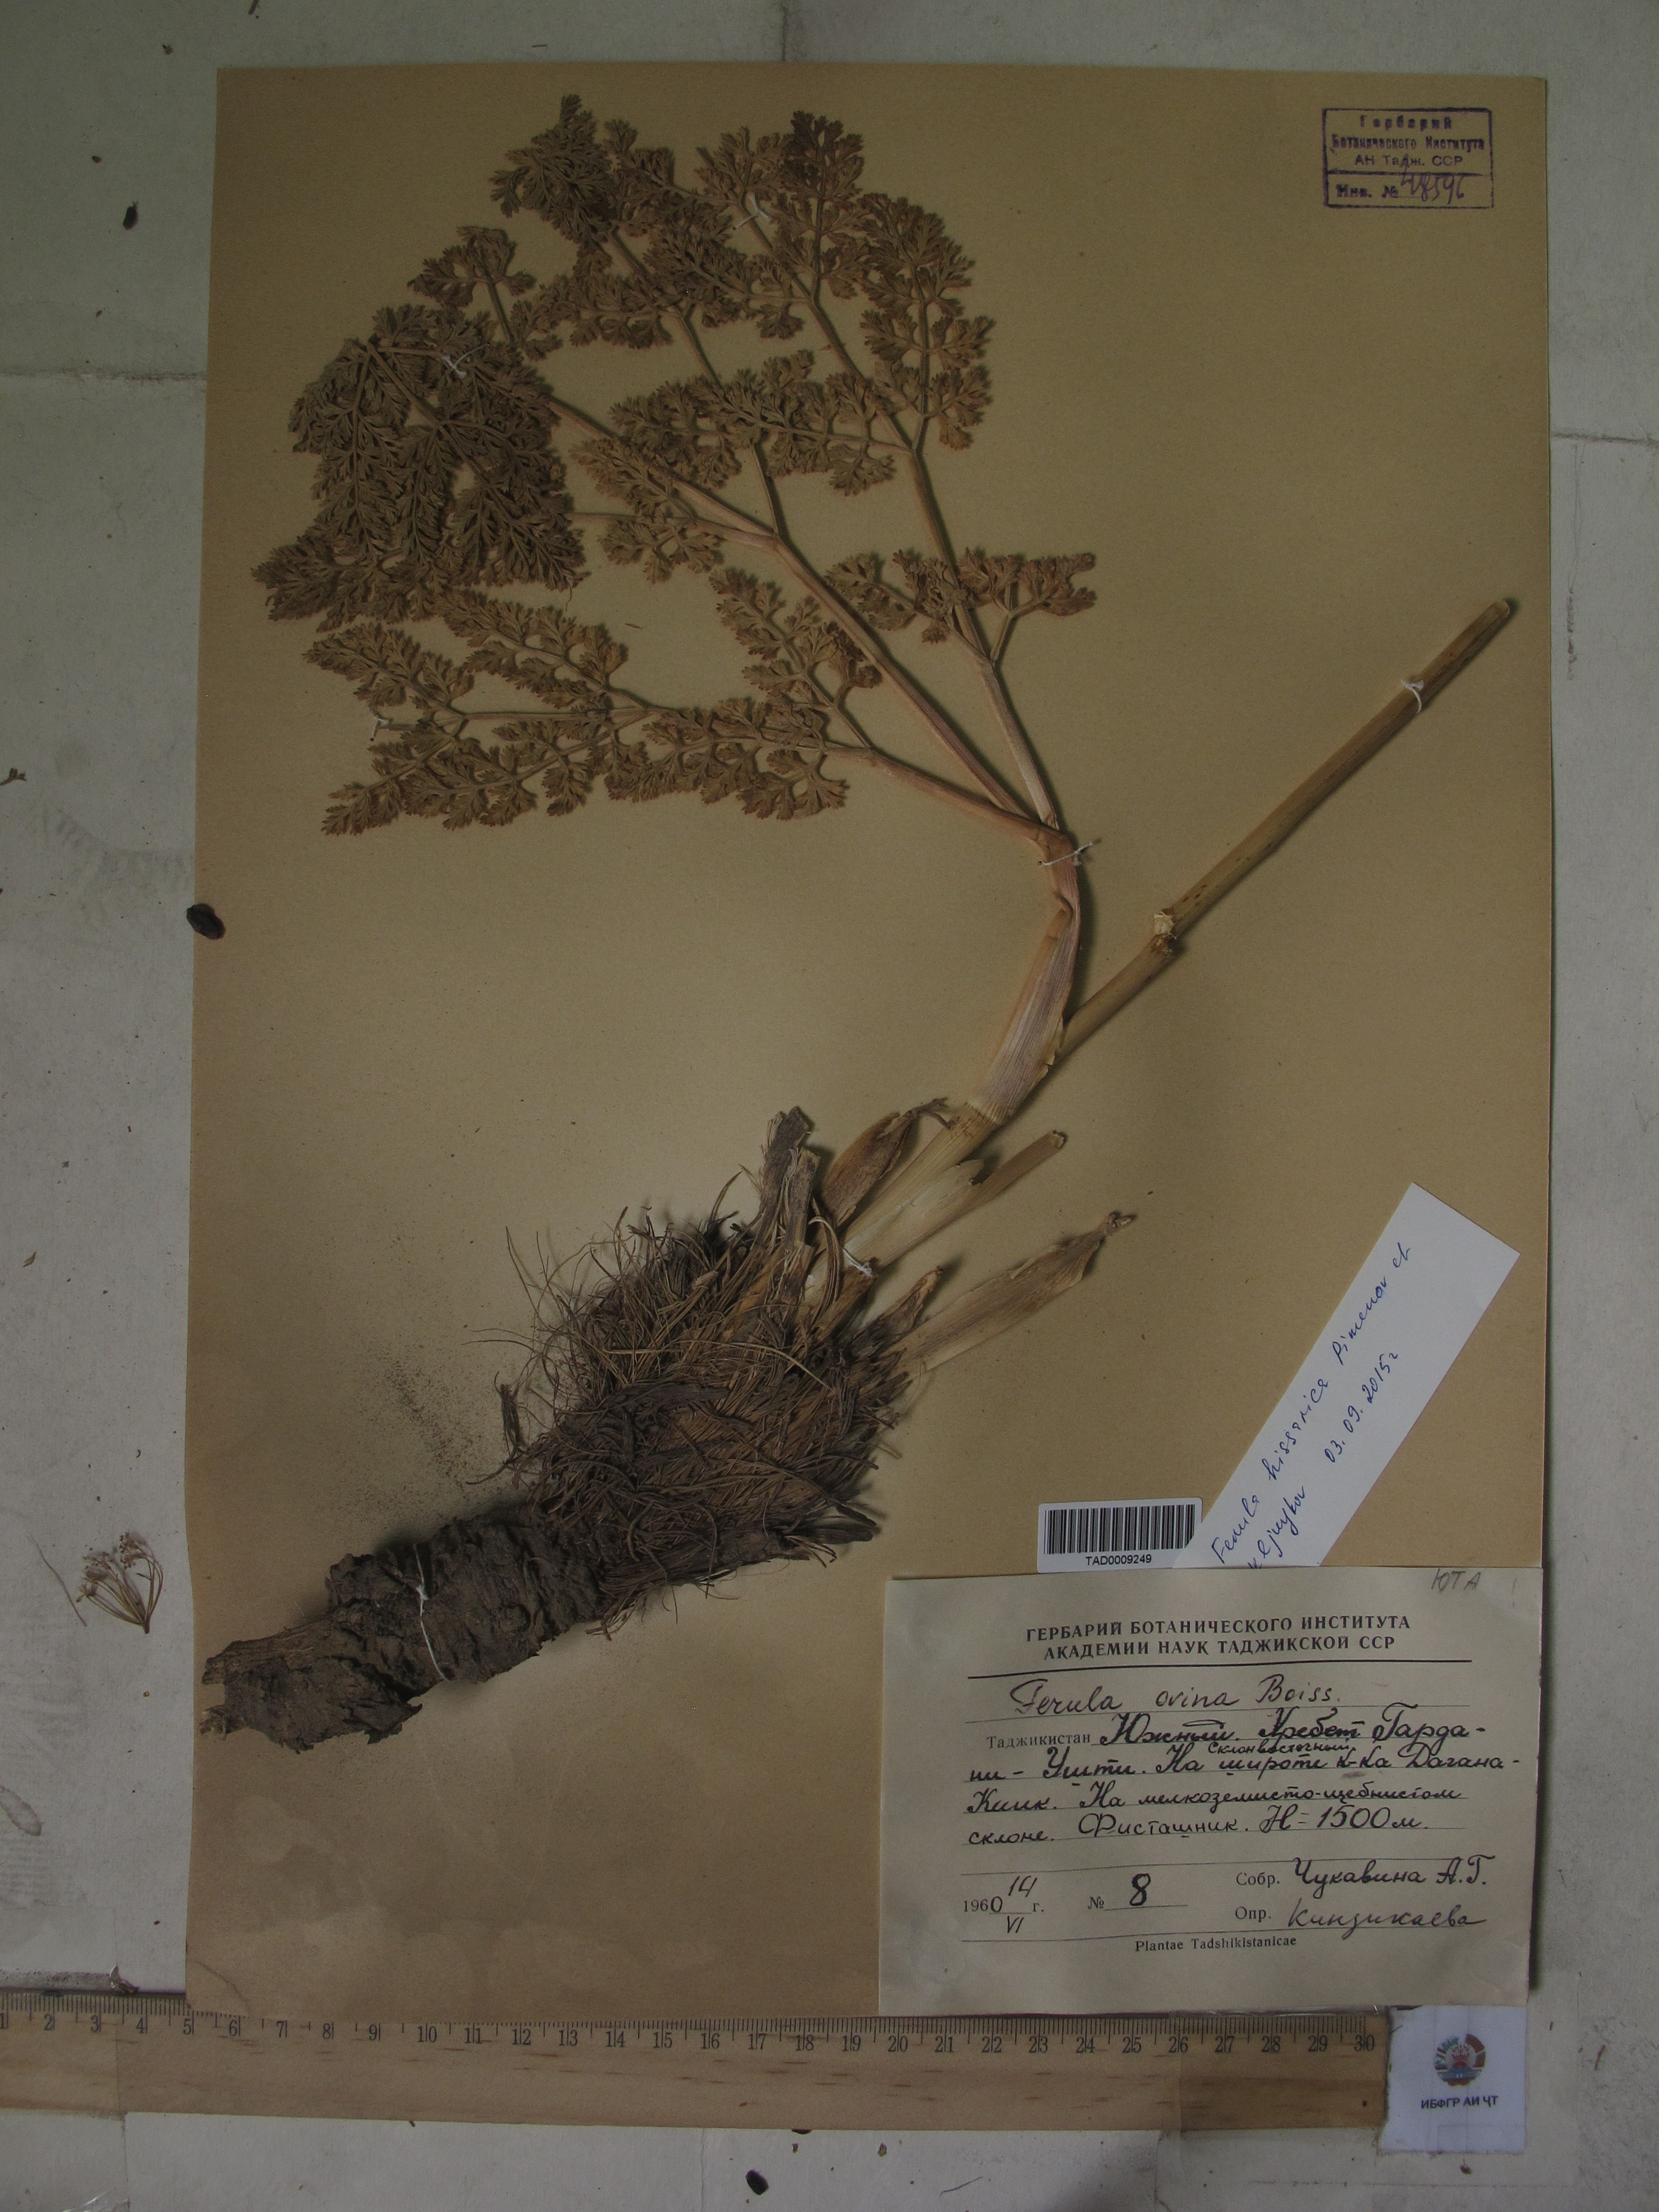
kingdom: Plantae
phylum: Tracheophyta
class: Magnoliopsida
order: Apiales
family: Apiaceae
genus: Ferula
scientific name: Ferula
